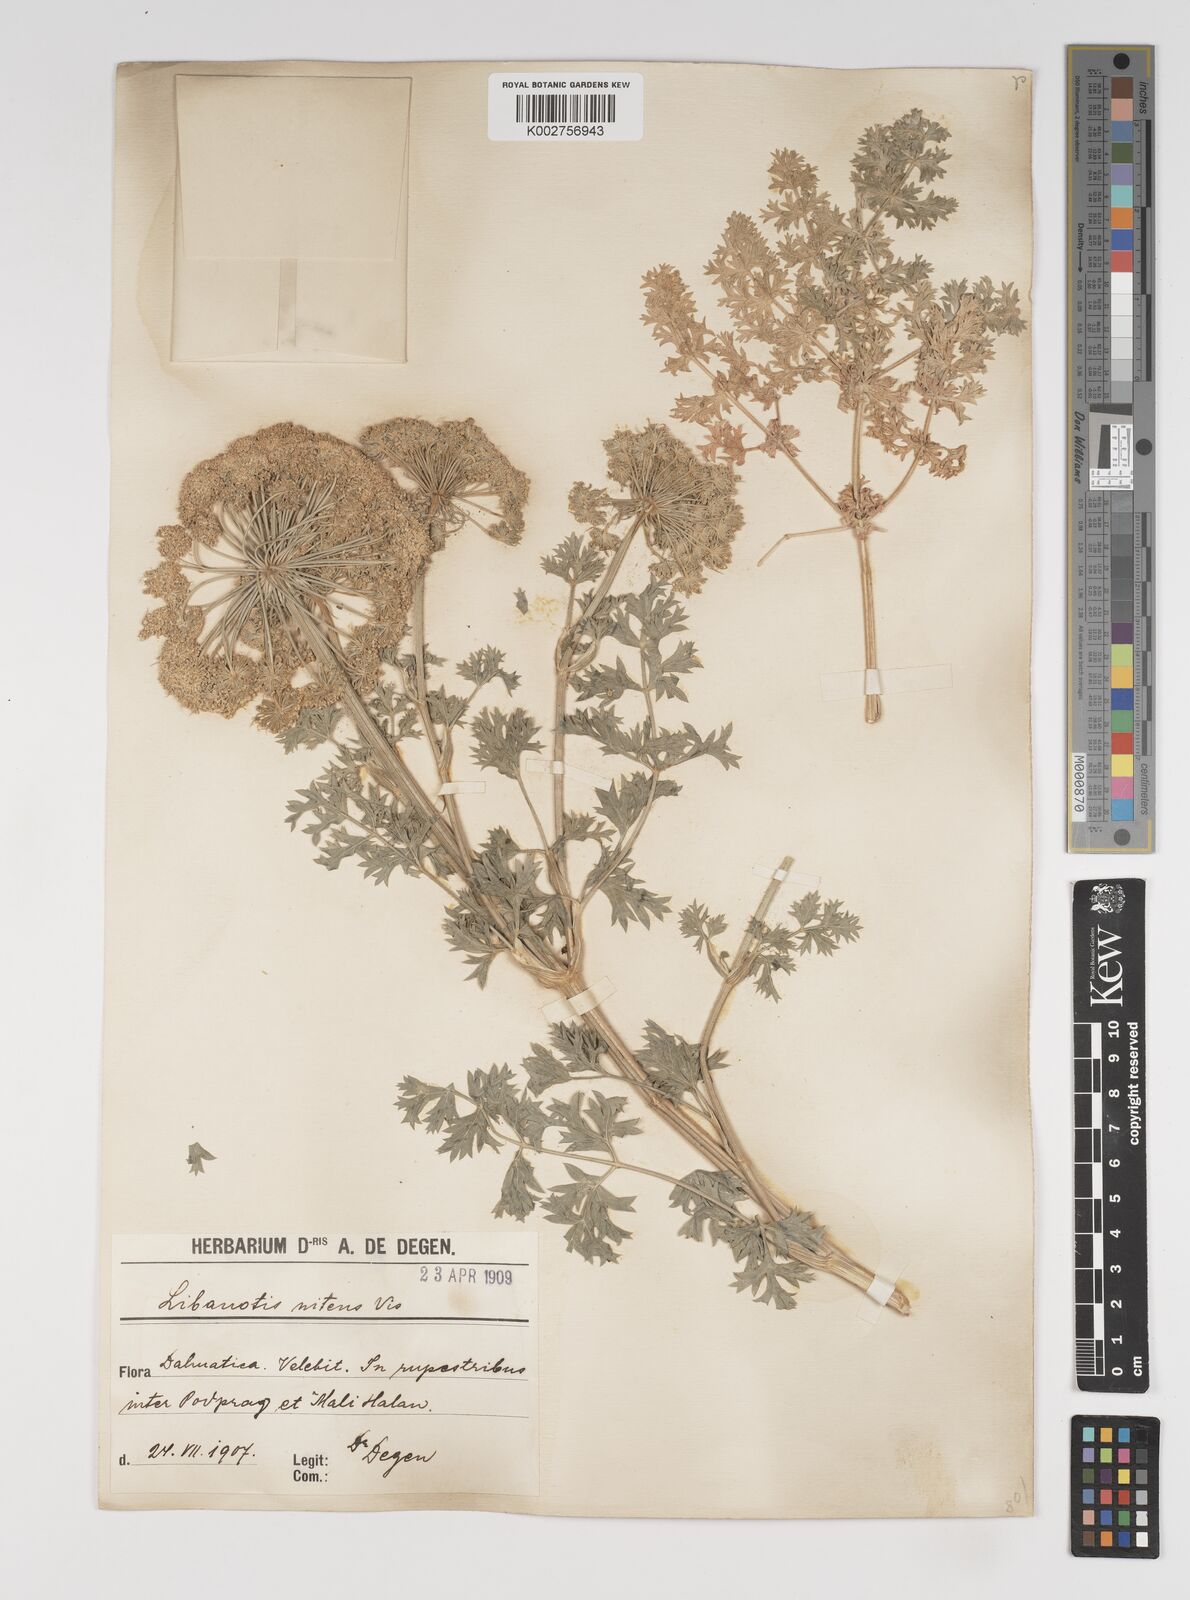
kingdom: Plantae
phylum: Tracheophyta
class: Magnoliopsida
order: Apiales
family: Apiaceae
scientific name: Apiaceae
